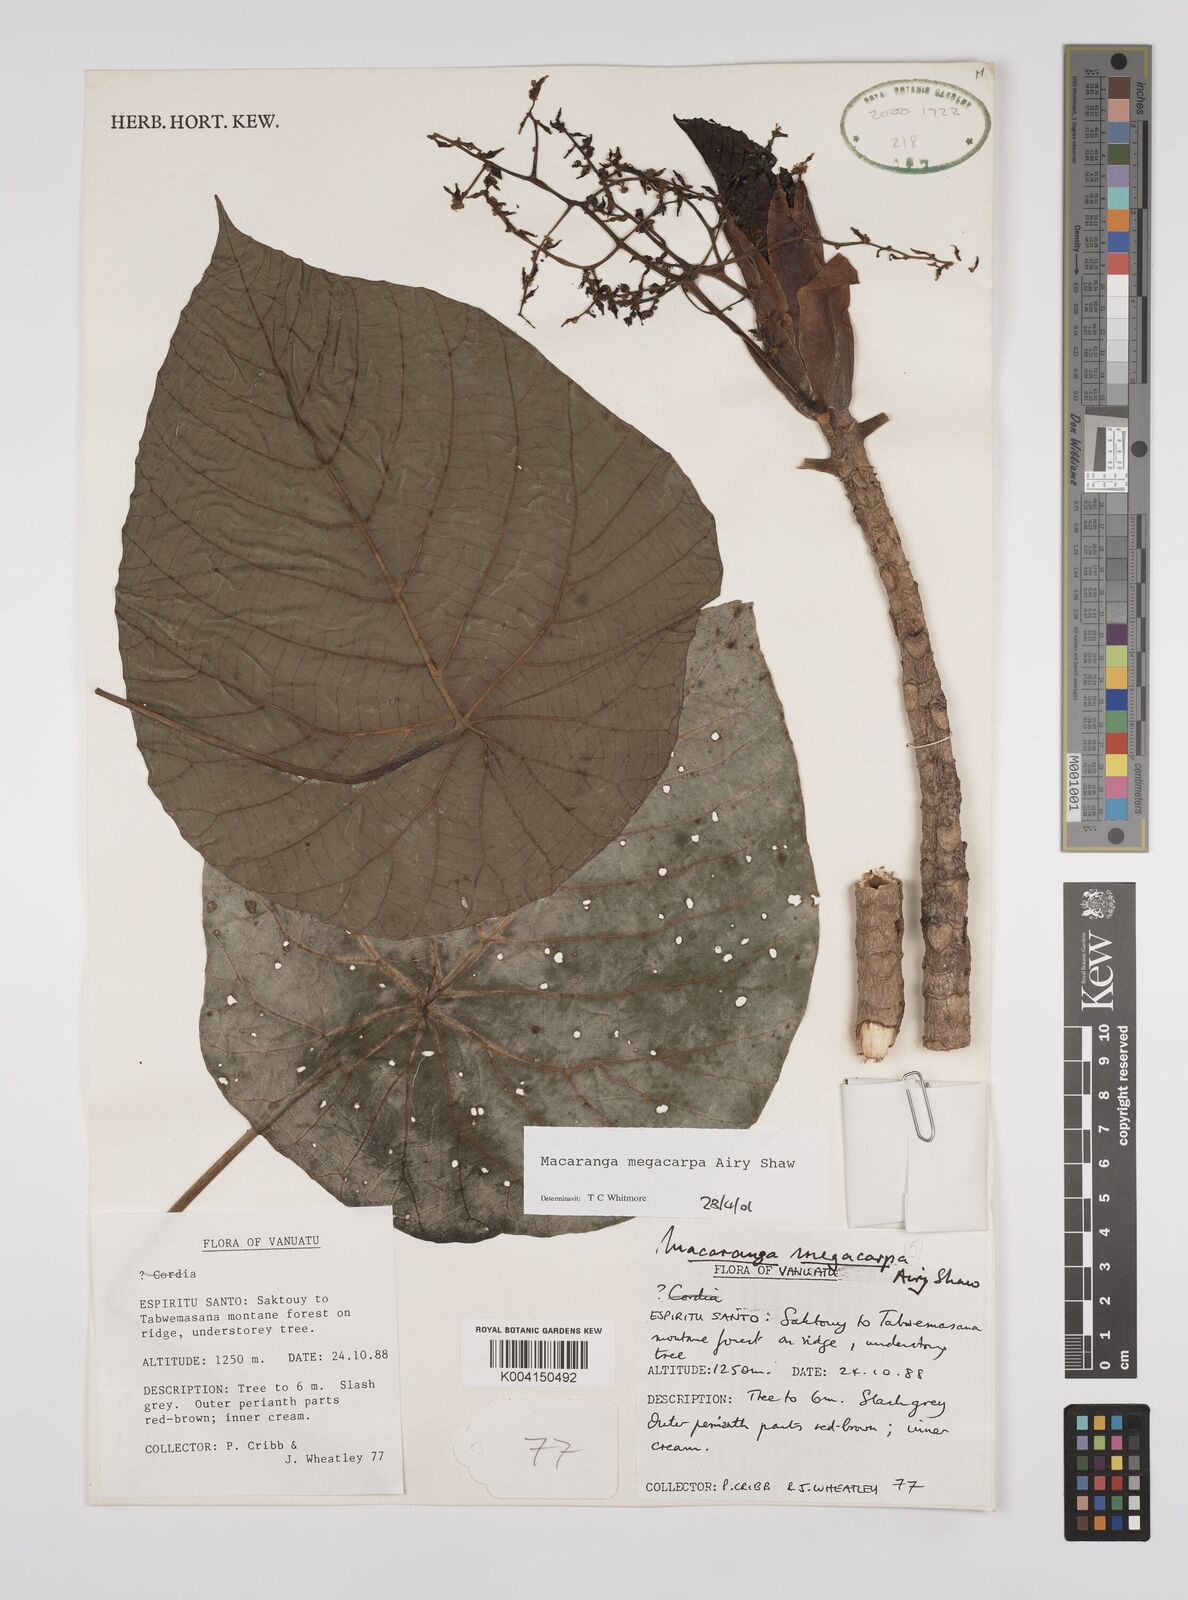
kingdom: Plantae
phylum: Tracheophyta
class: Magnoliopsida
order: Malpighiales
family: Euphorbiaceae
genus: Macaranga
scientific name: Macaranga megacarpa
